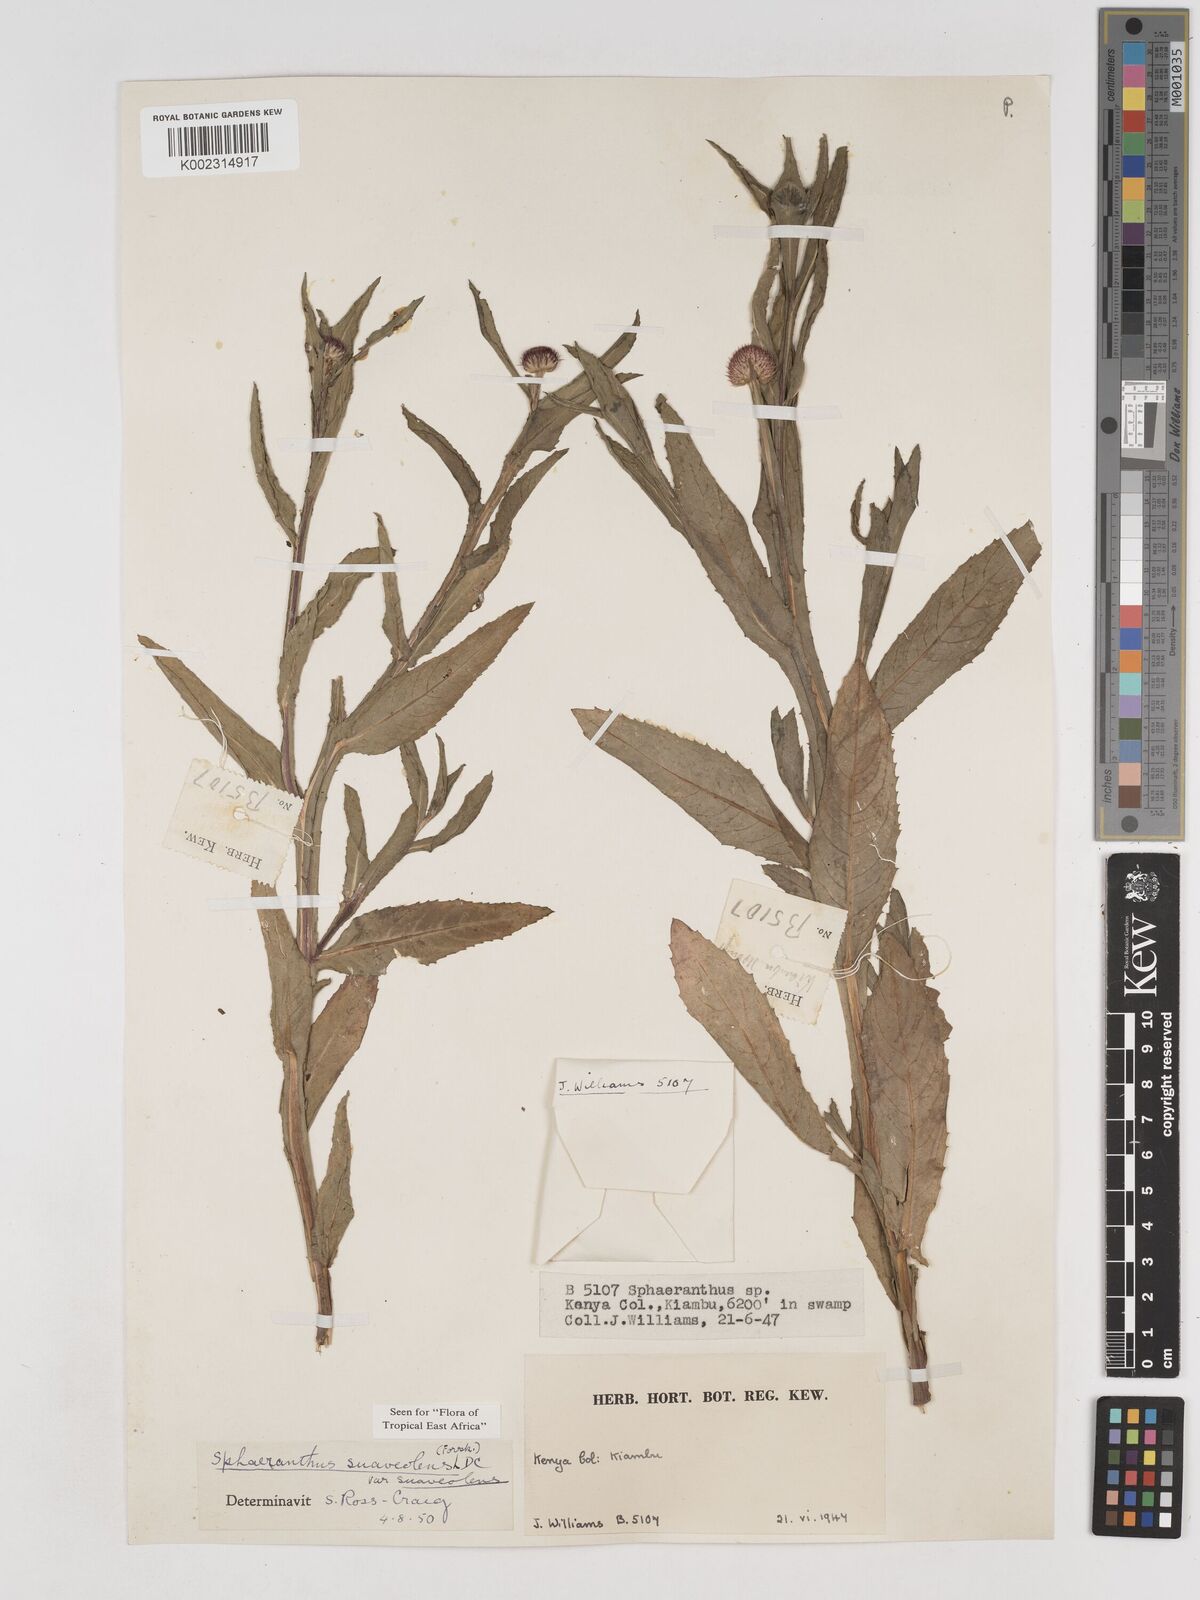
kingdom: Plantae
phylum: Tracheophyta
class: Magnoliopsida
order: Asterales
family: Asteraceae
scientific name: Asteraceae
